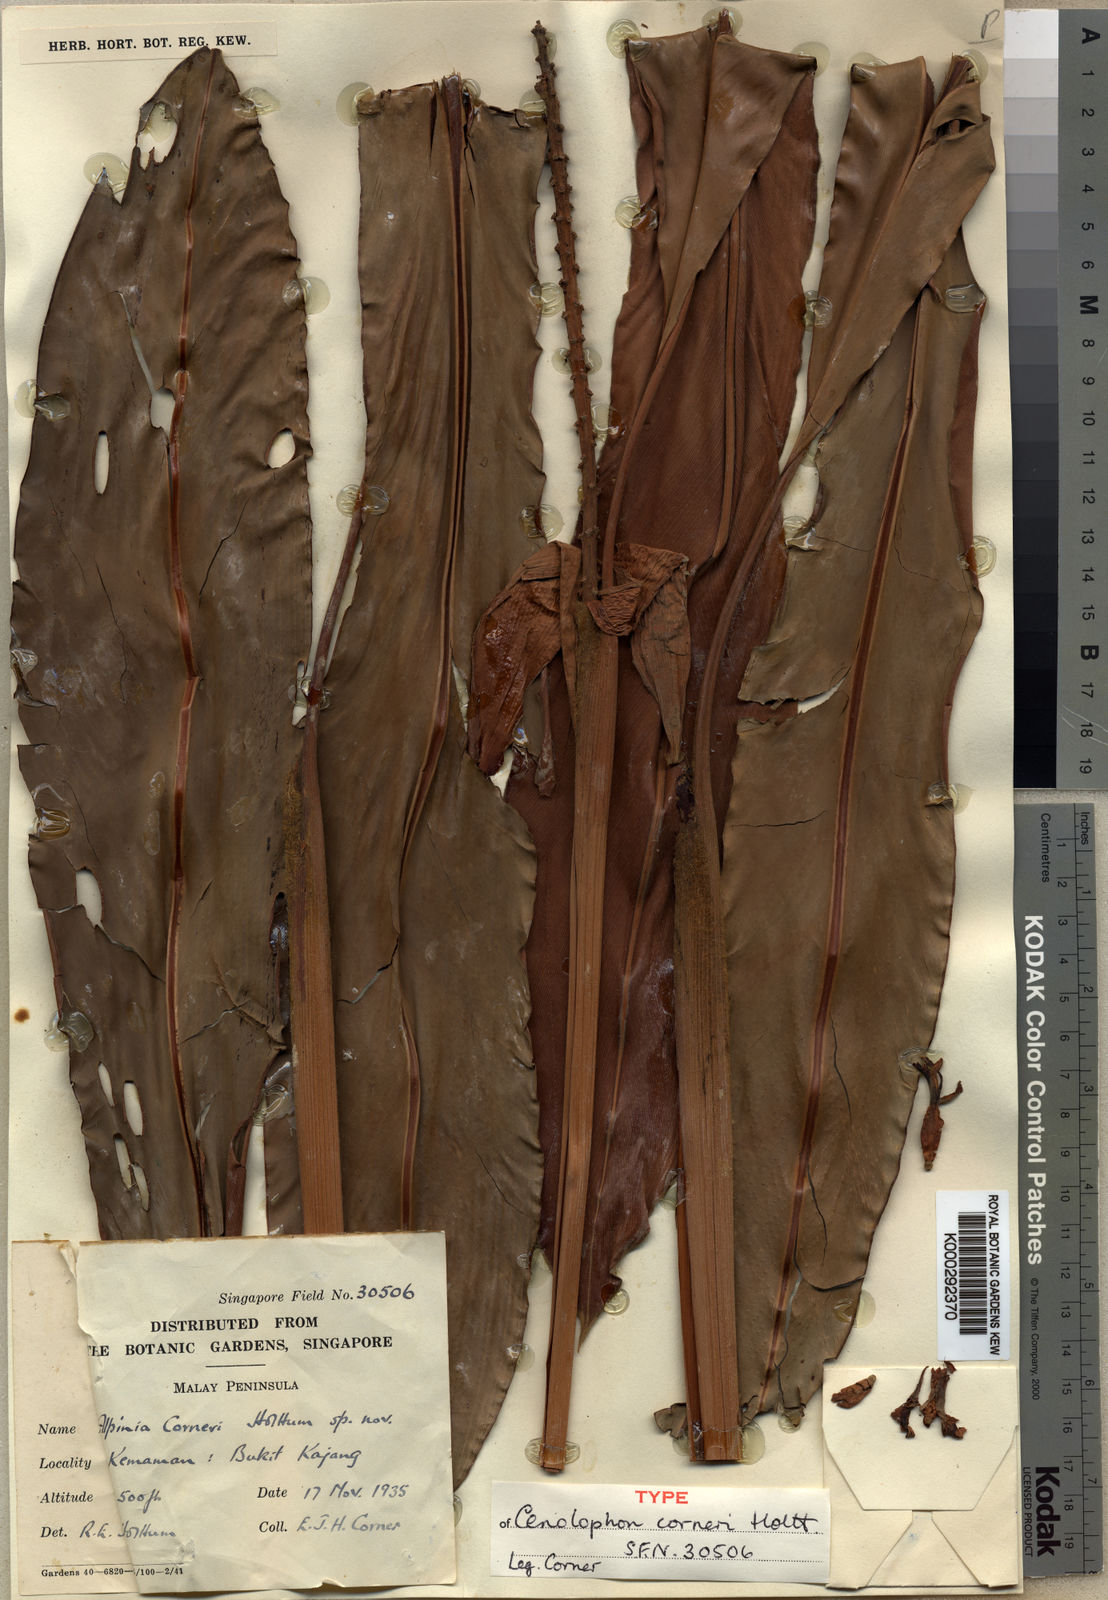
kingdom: Plantae
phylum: Tracheophyta
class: Liliopsida
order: Zingiberales
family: Zingiberaceae
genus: Alpinia
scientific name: Alpinia corneri
